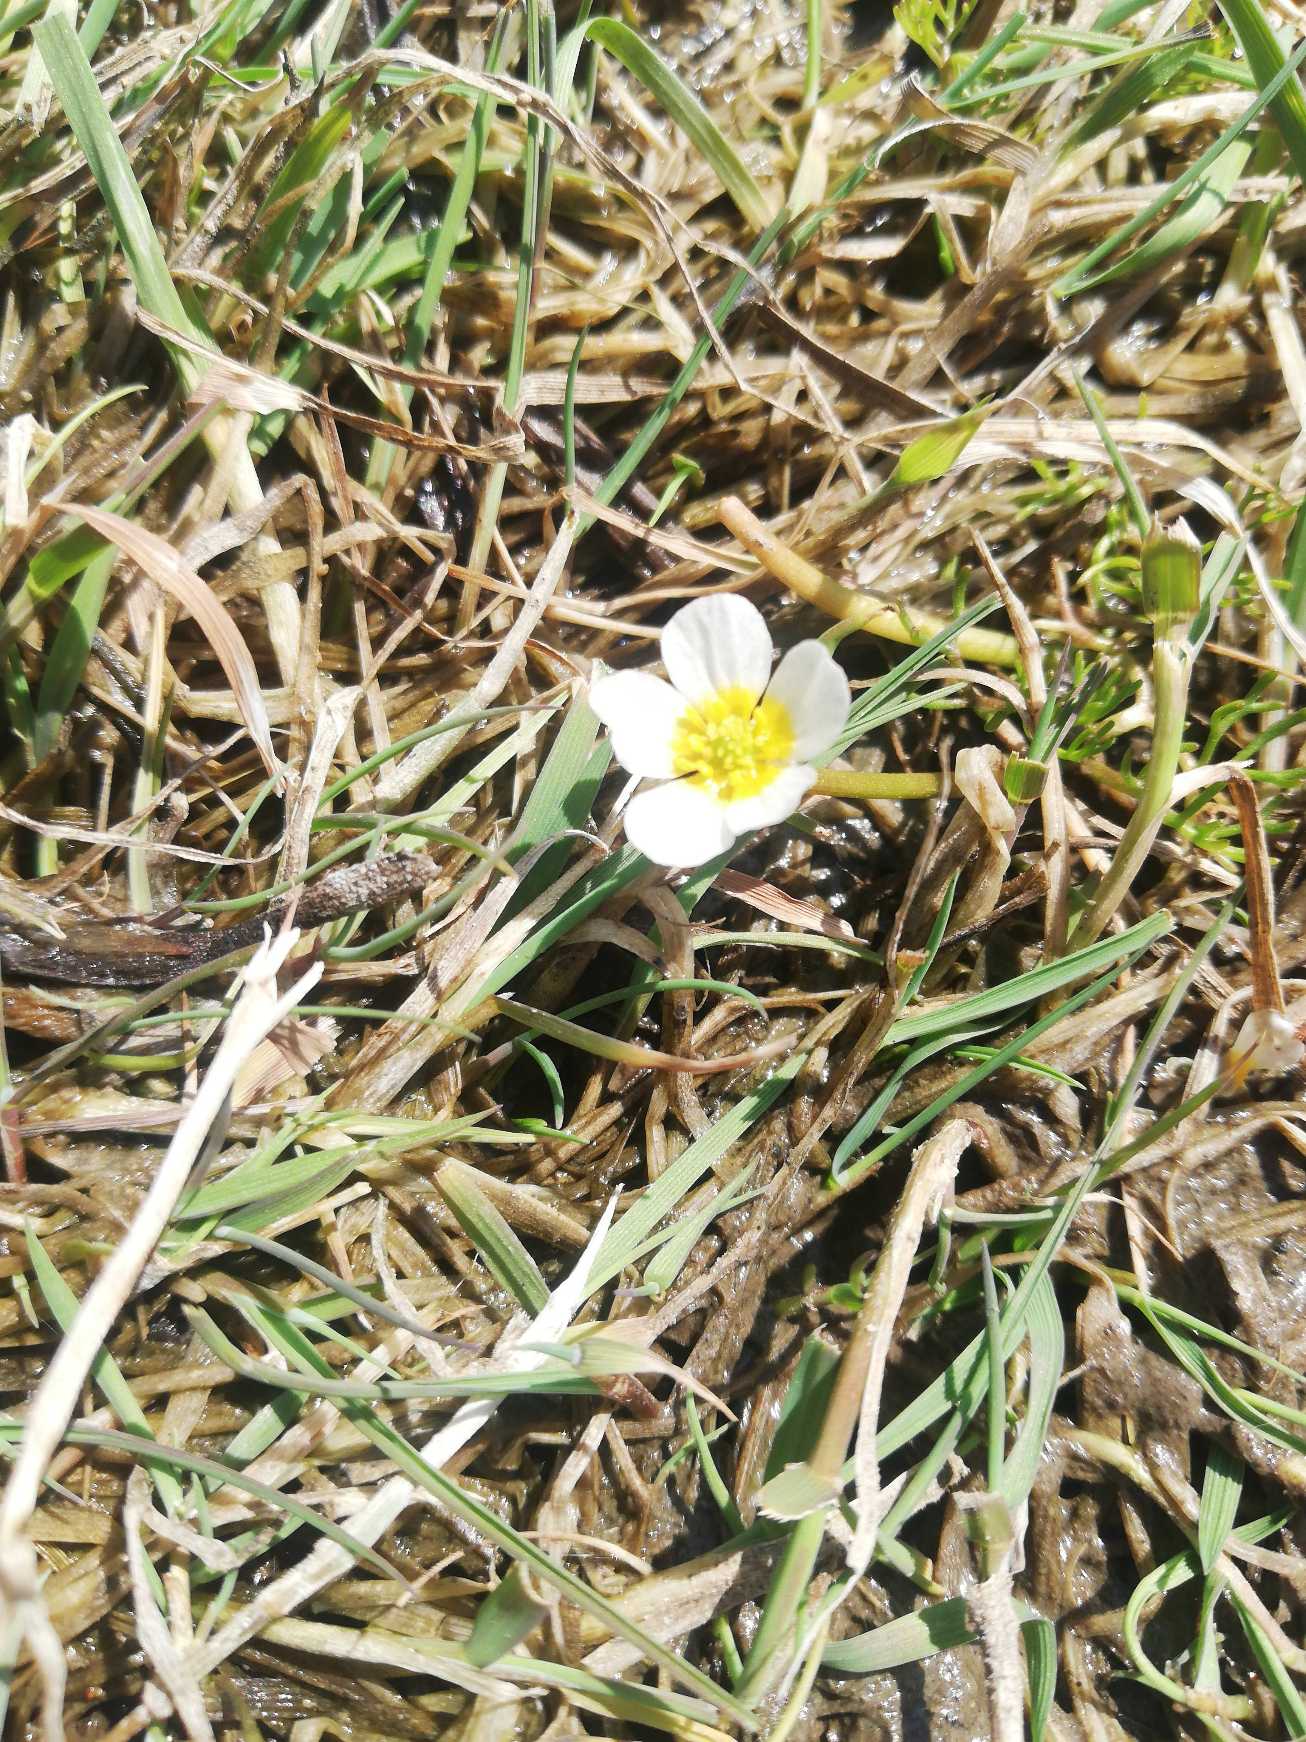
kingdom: Plantae
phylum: Tracheophyta
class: Magnoliopsida
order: Ranunculales
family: Ranunculaceae
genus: Ranunculus
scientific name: Ranunculus
